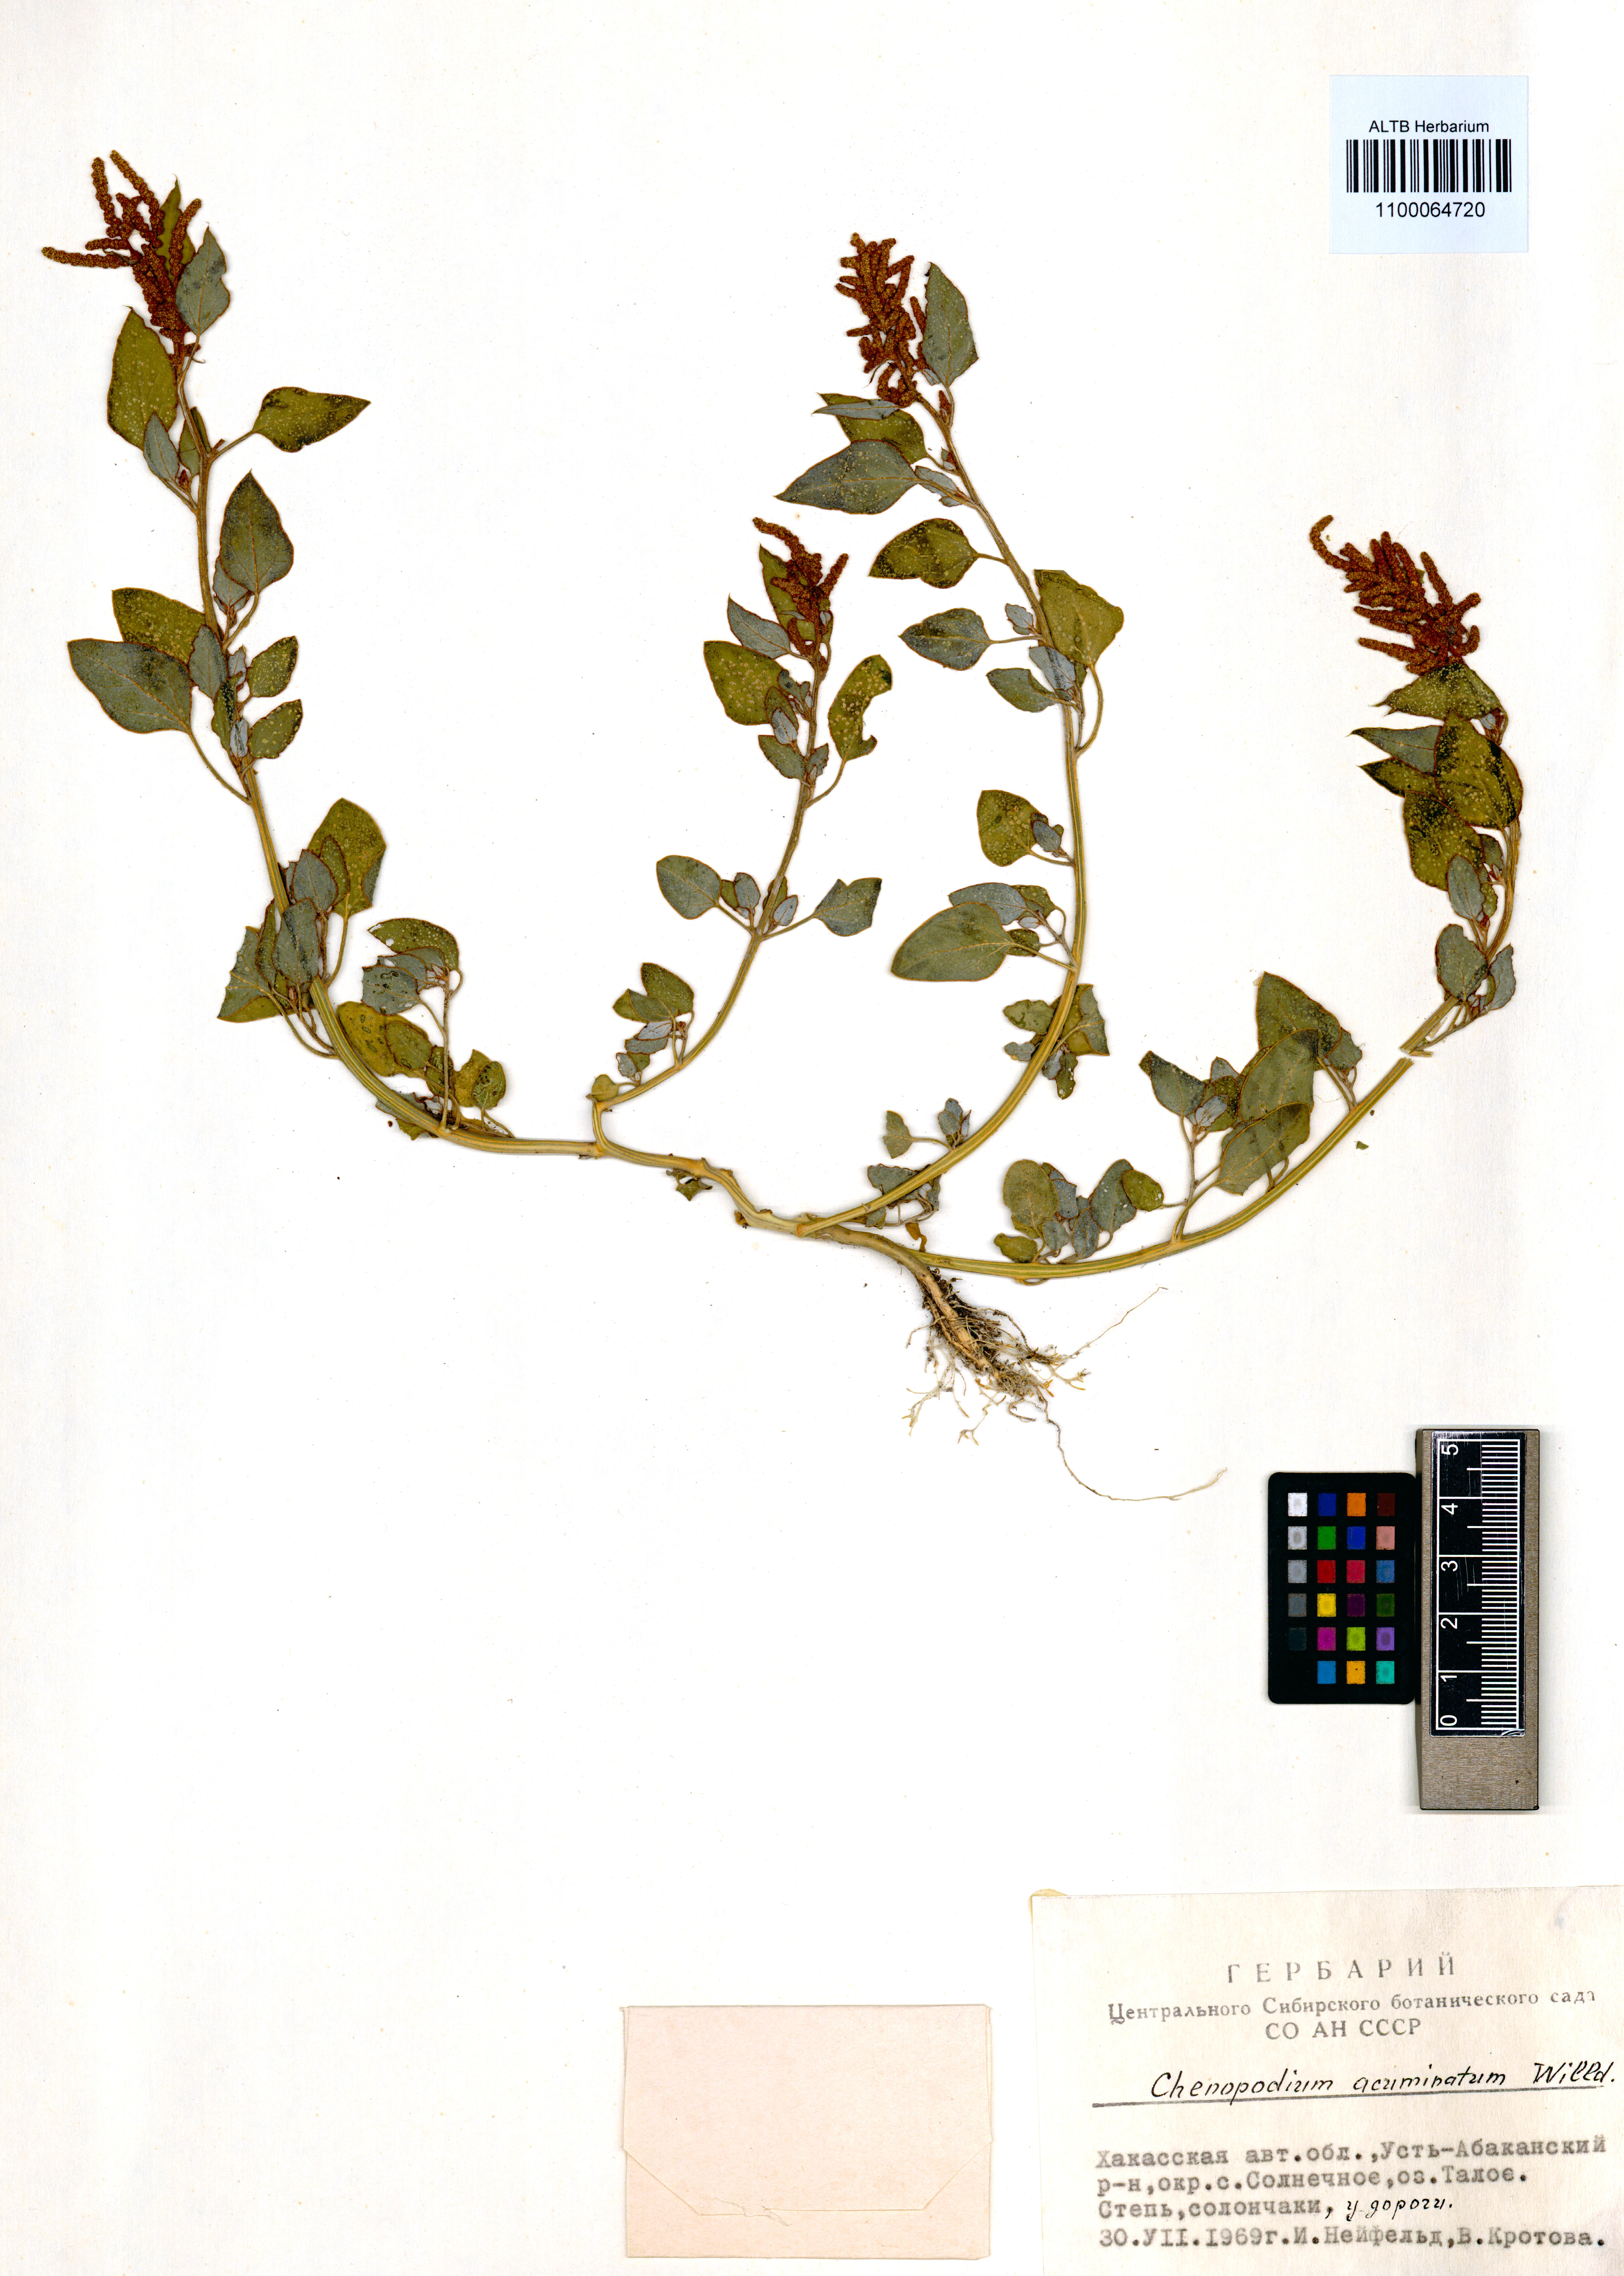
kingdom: Plantae
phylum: Tracheophyta
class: Magnoliopsida
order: Caryophyllales
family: Amaranthaceae
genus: Chenopodium
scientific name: Chenopodium acuminatum
